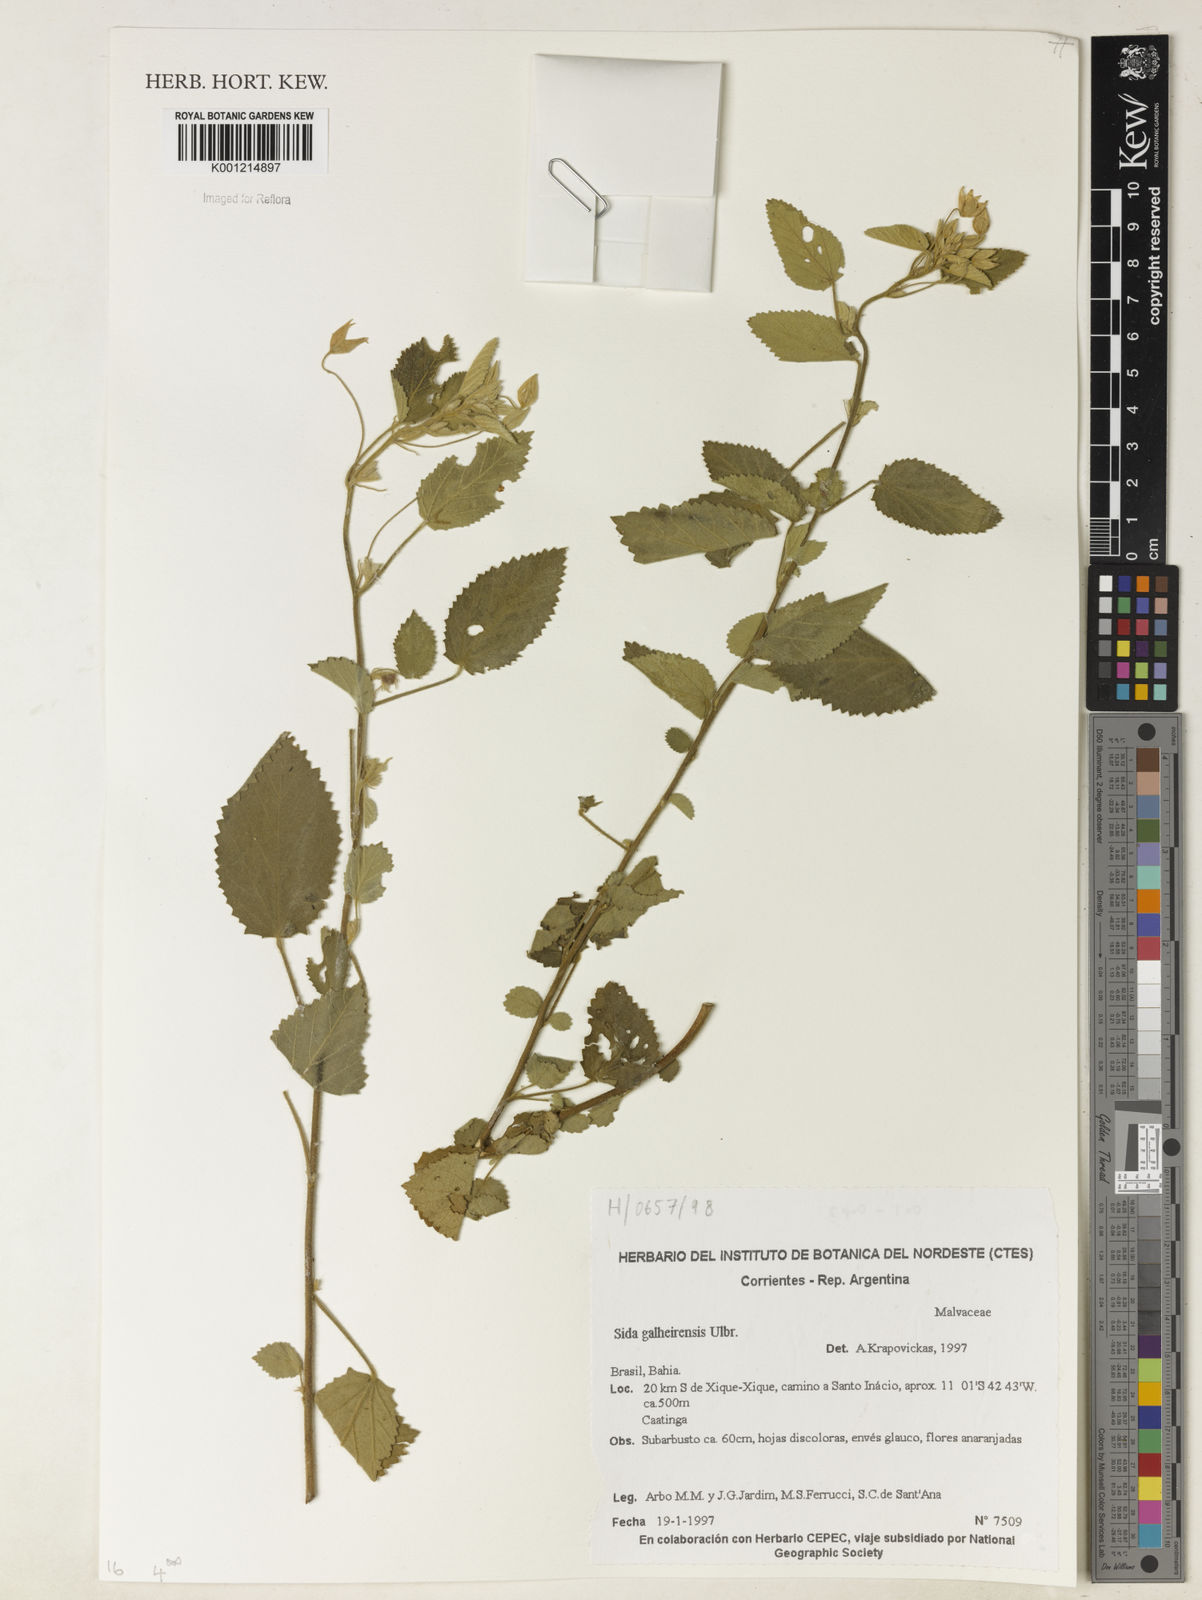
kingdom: Plantae
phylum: Tracheophyta
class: Magnoliopsida
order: Malvales
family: Malvaceae
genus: Sida
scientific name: Sida galheirensis
